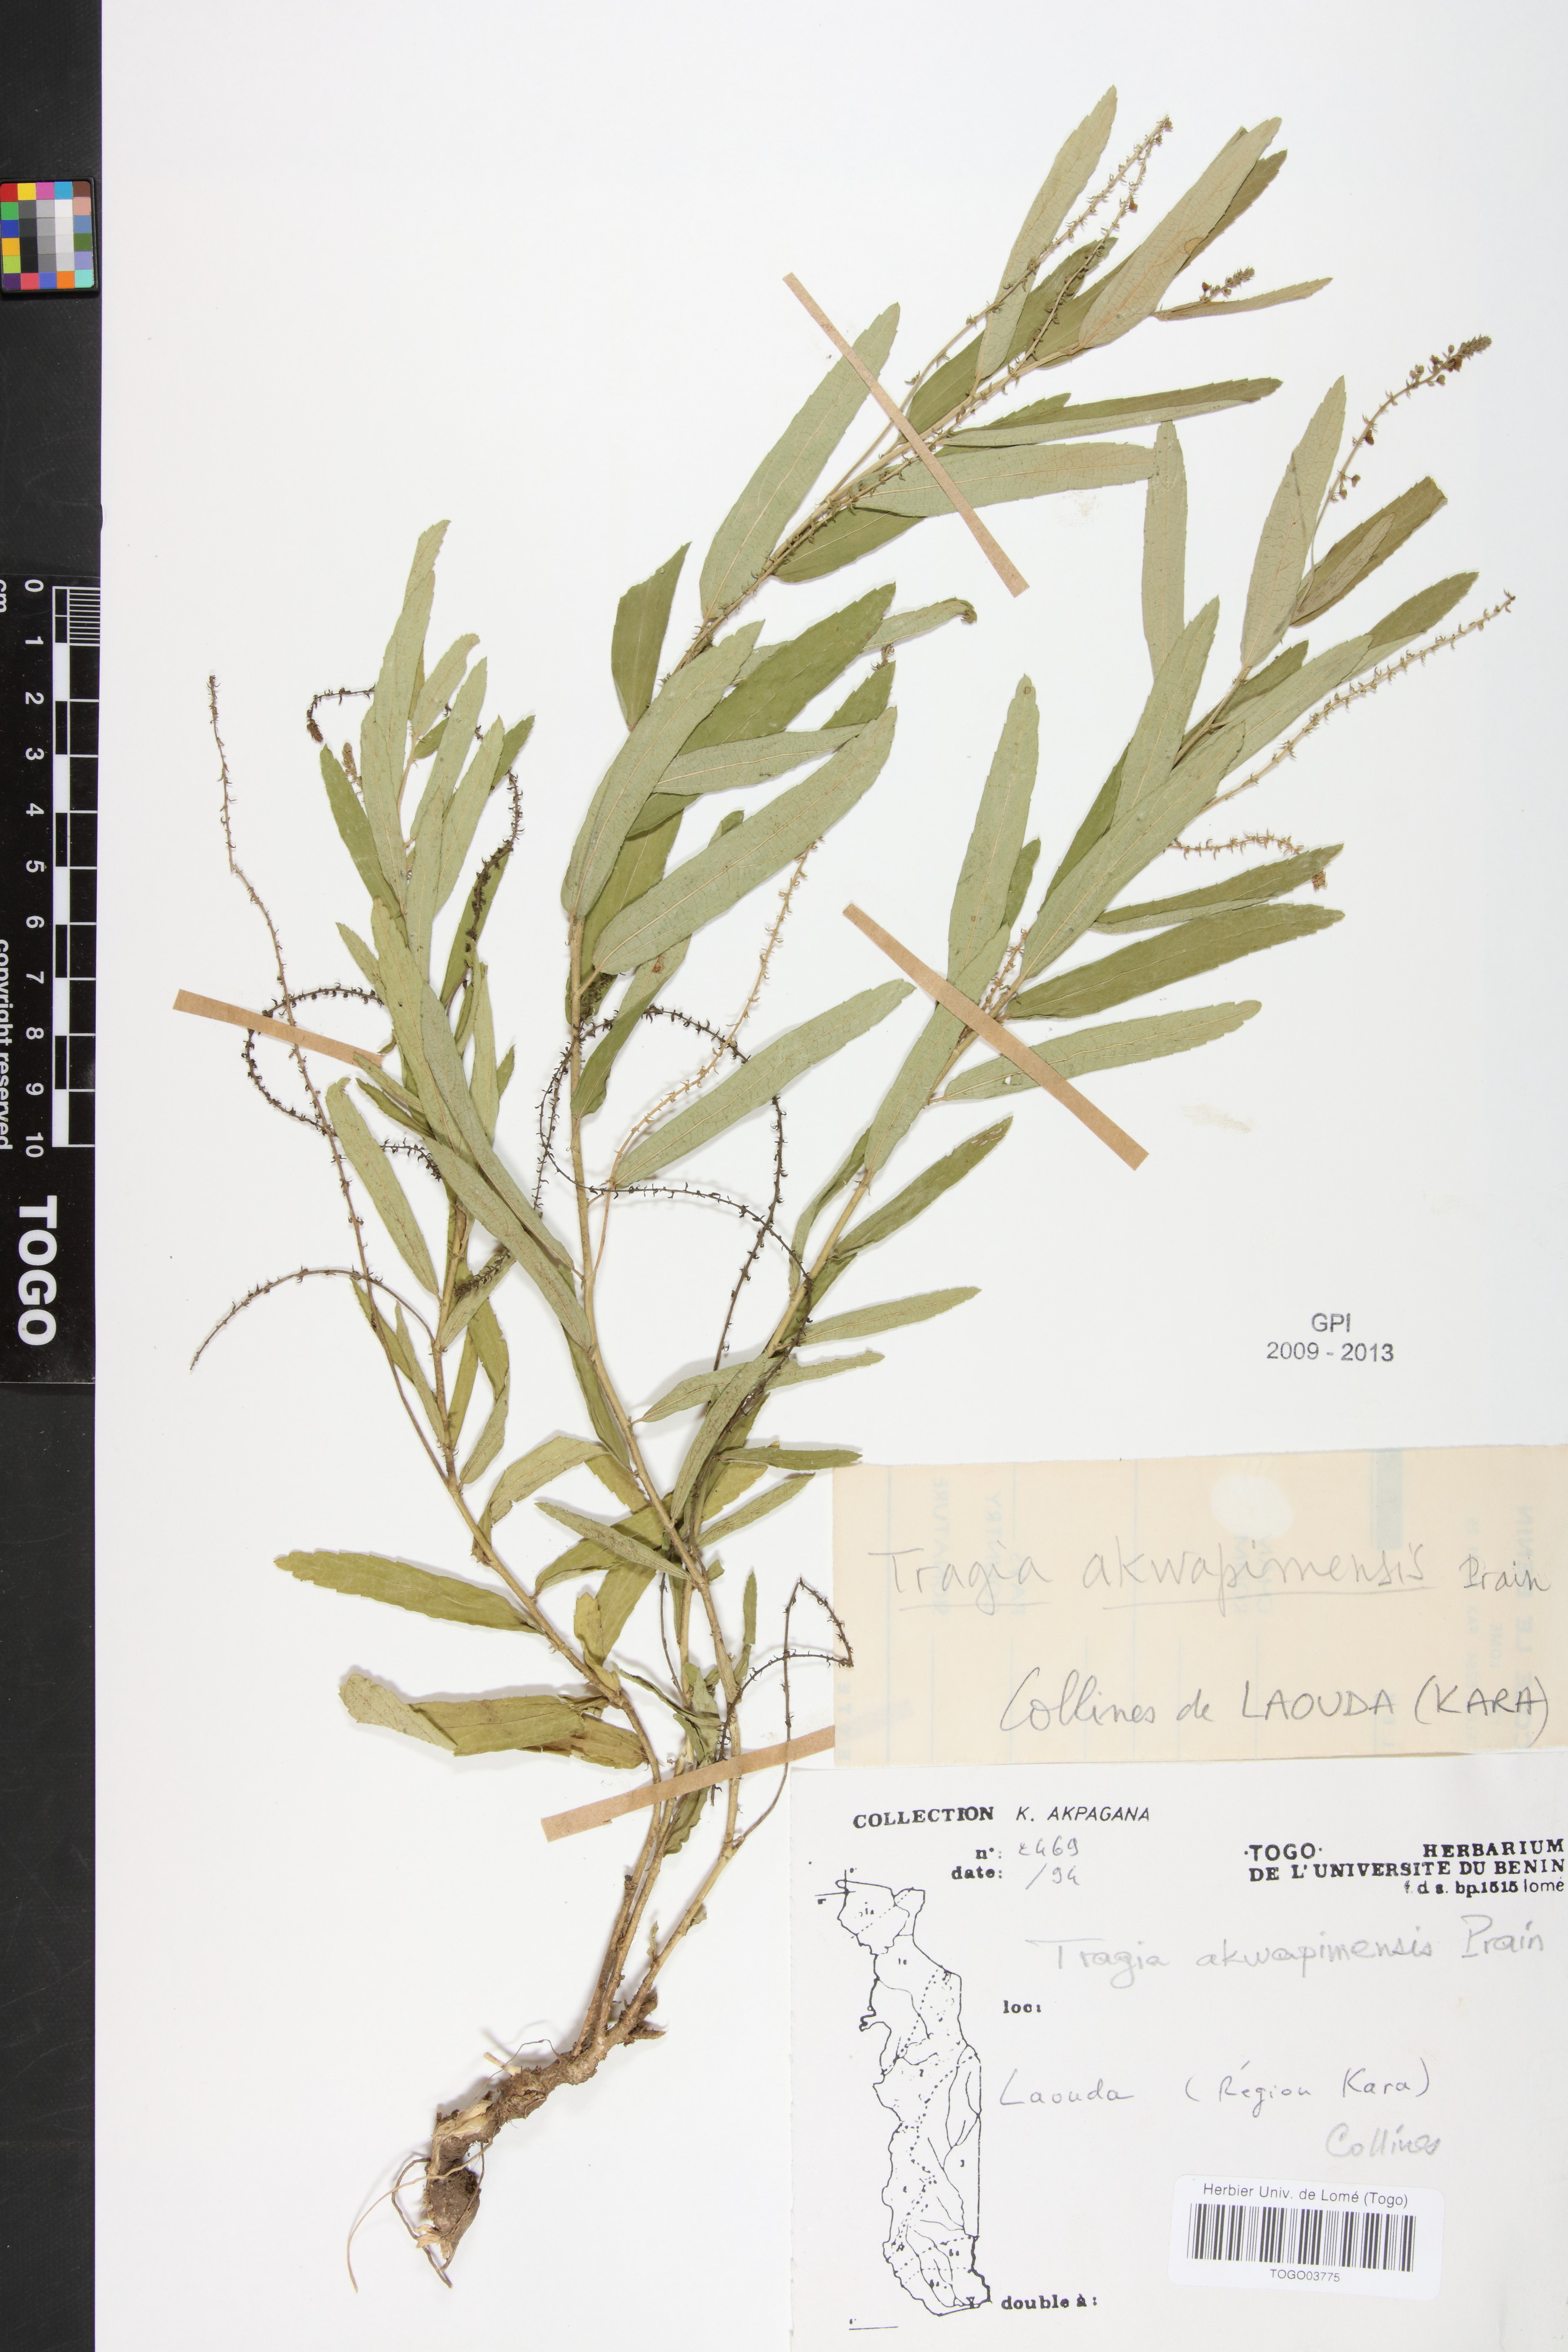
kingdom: Plantae
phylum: Tracheophyta
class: Magnoliopsida
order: Malpighiales
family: Euphorbiaceae
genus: Tragia
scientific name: Tragia wildemanii
